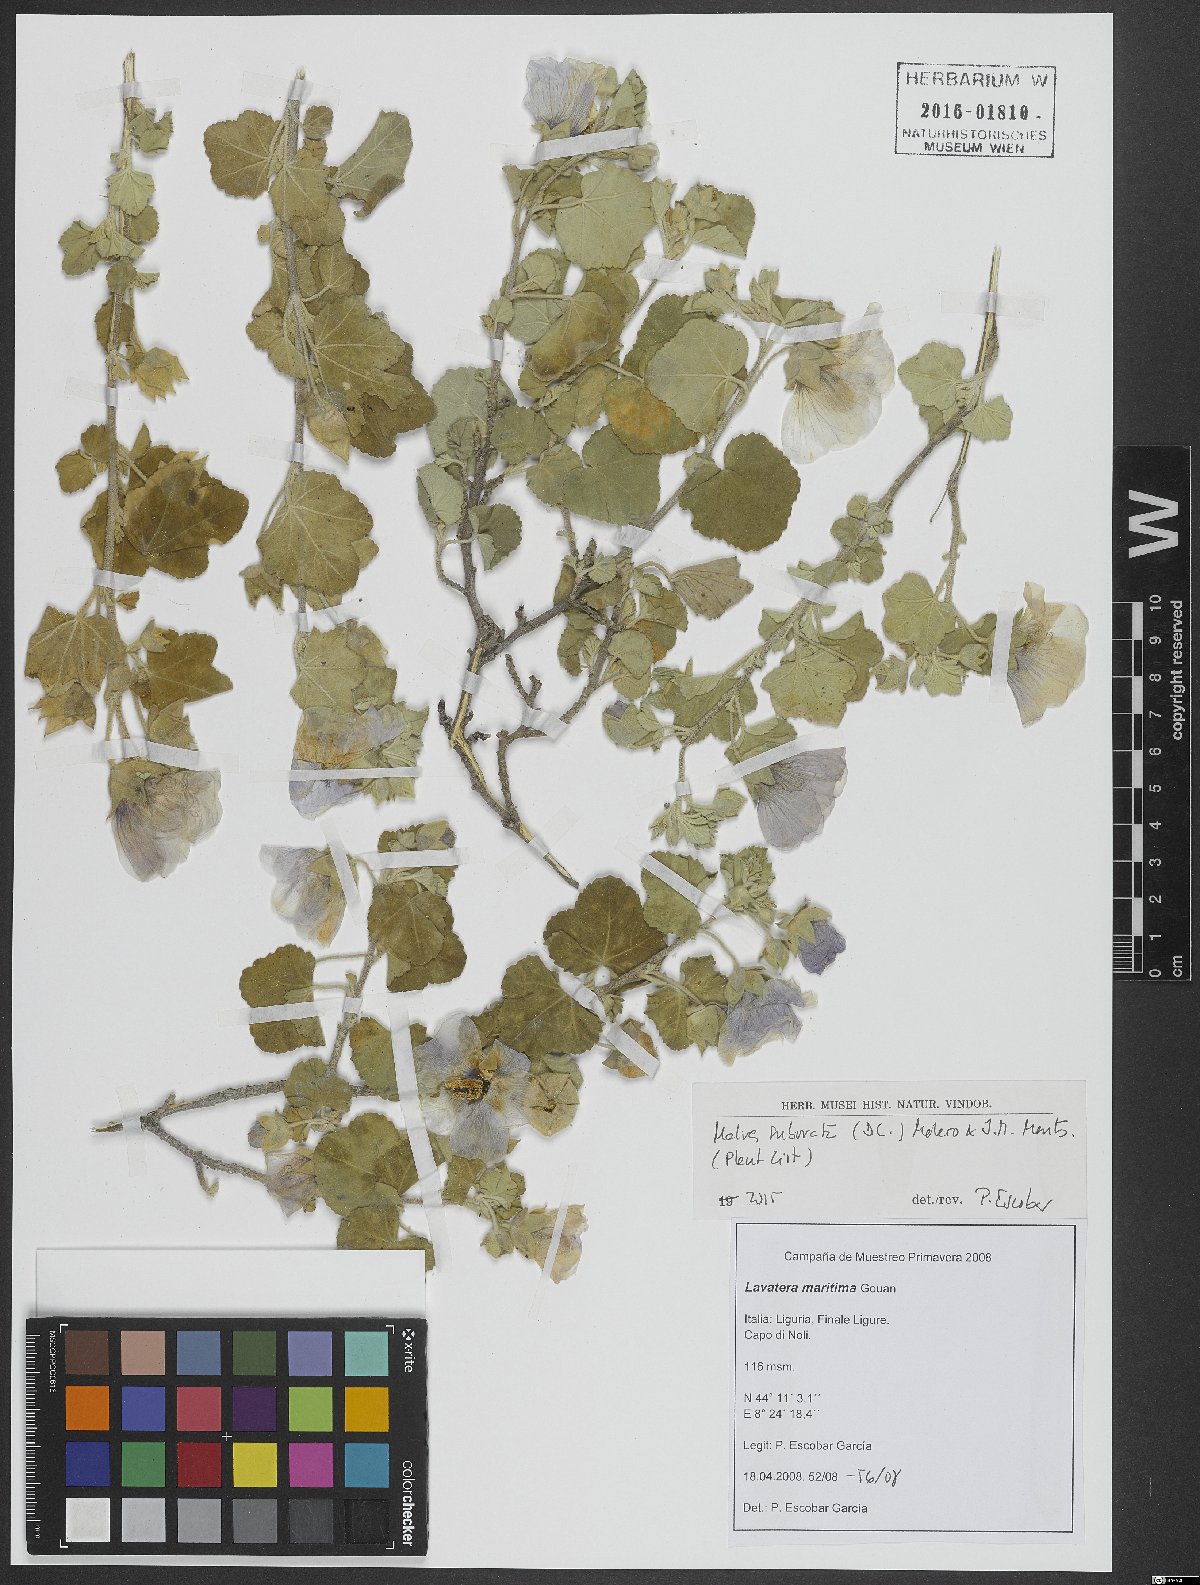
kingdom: Plantae
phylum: Tracheophyta
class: Magnoliopsida
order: Malvales
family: Malvaceae
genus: Malva
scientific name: Malva subovata
